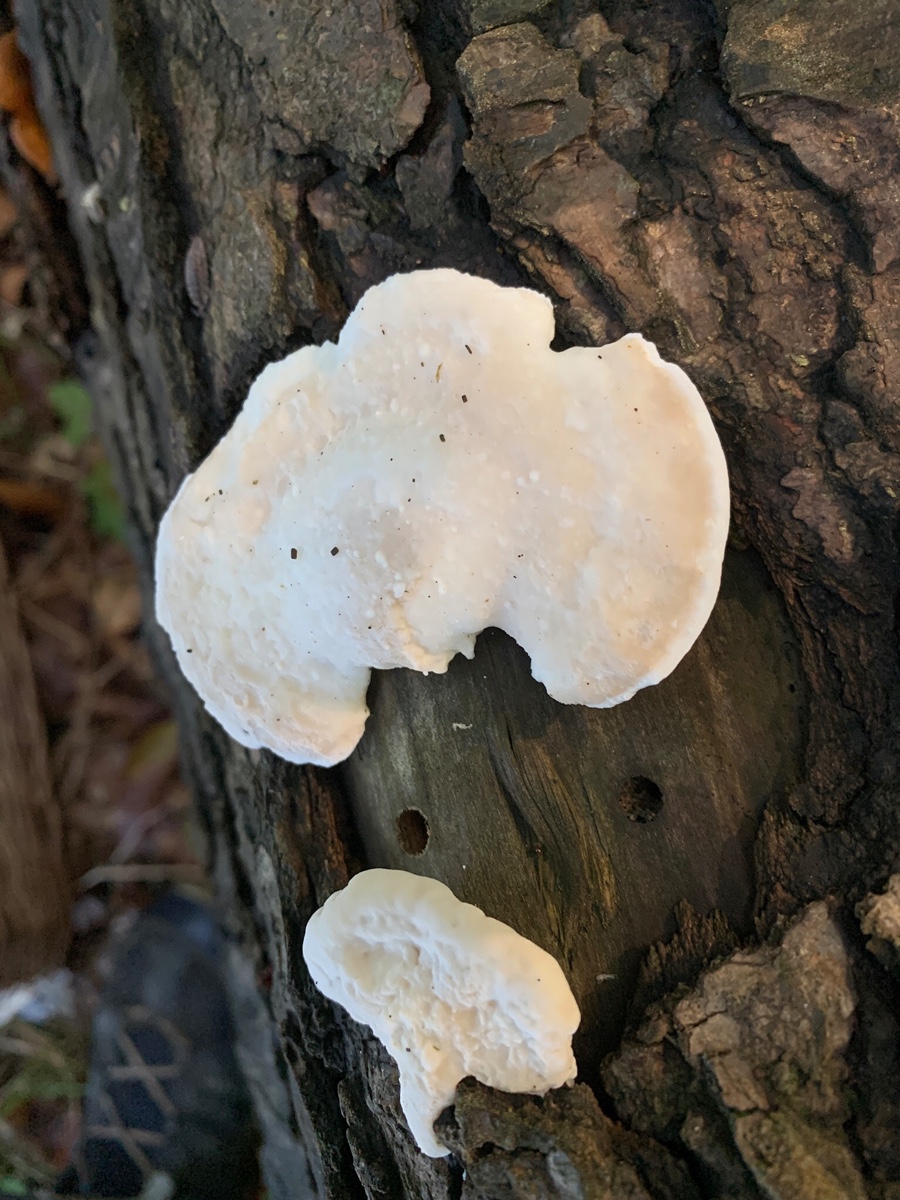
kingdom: Fungi
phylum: Basidiomycota
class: Agaricomycetes
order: Polyporales
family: Incrustoporiaceae
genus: Tyromyces
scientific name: Tyromyces lacteus
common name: mælkehvid kødporesvamp
